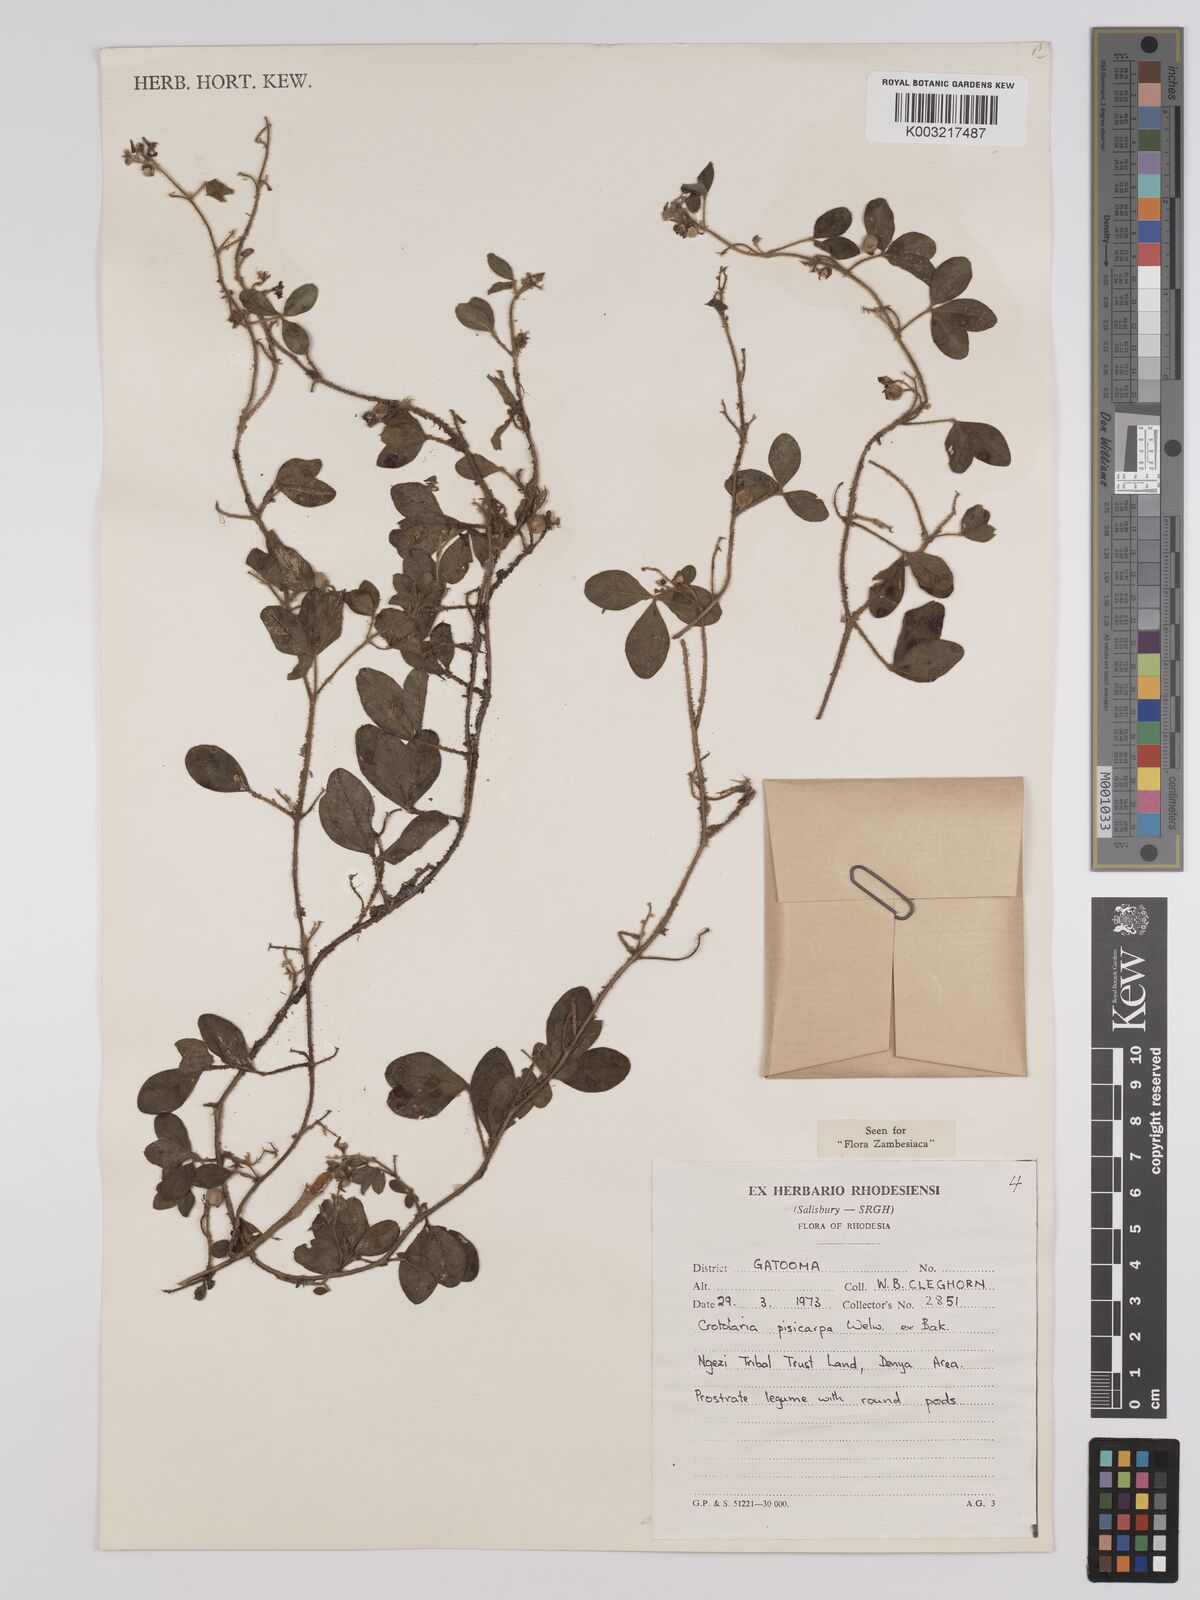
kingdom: Plantae
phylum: Tracheophyta
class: Magnoliopsida
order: Fabales
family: Fabaceae
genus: Crotalaria
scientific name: Crotalaria pisicarpa
